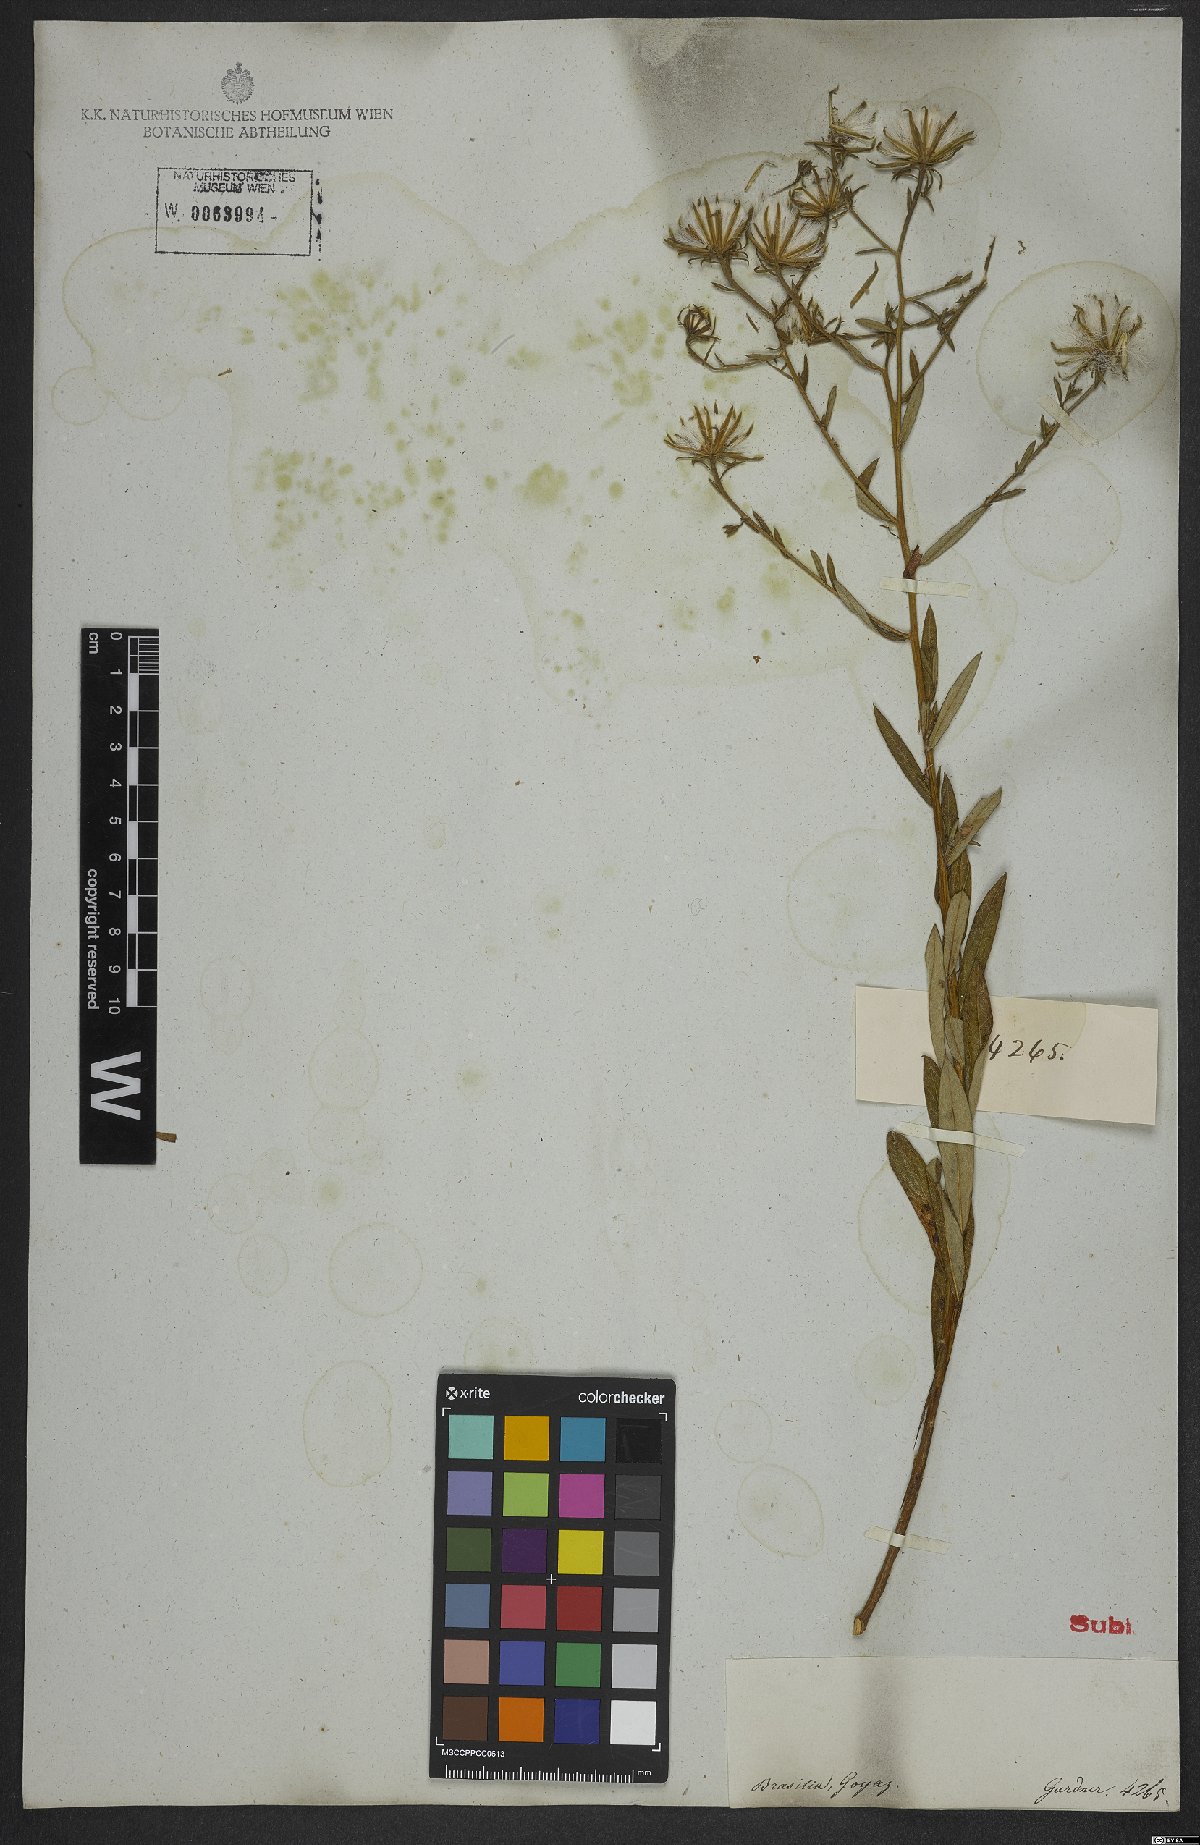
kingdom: Plantae
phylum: Tracheophyta
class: Magnoliopsida
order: Asterales
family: Asteraceae
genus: Trixis
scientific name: Trixis glutinosa
